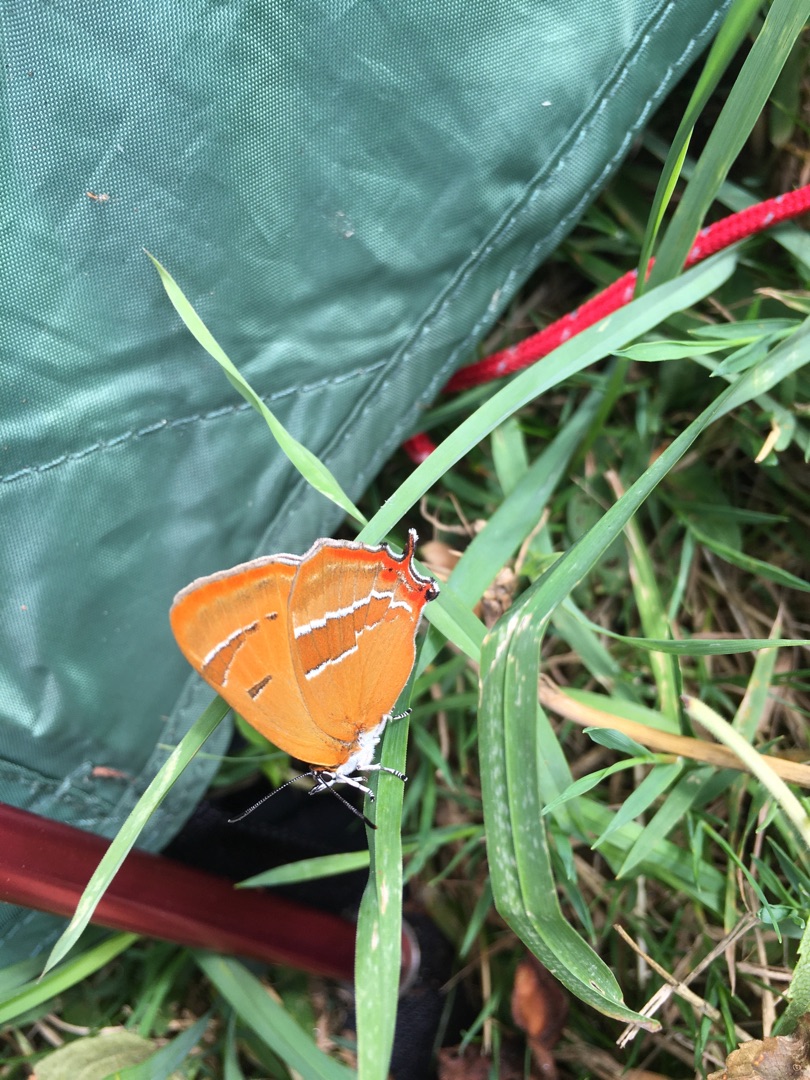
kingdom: Animalia
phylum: Arthropoda
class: Insecta
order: Lepidoptera
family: Lycaenidae
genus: Thecla
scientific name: Thecla betulae
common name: Guldhale
